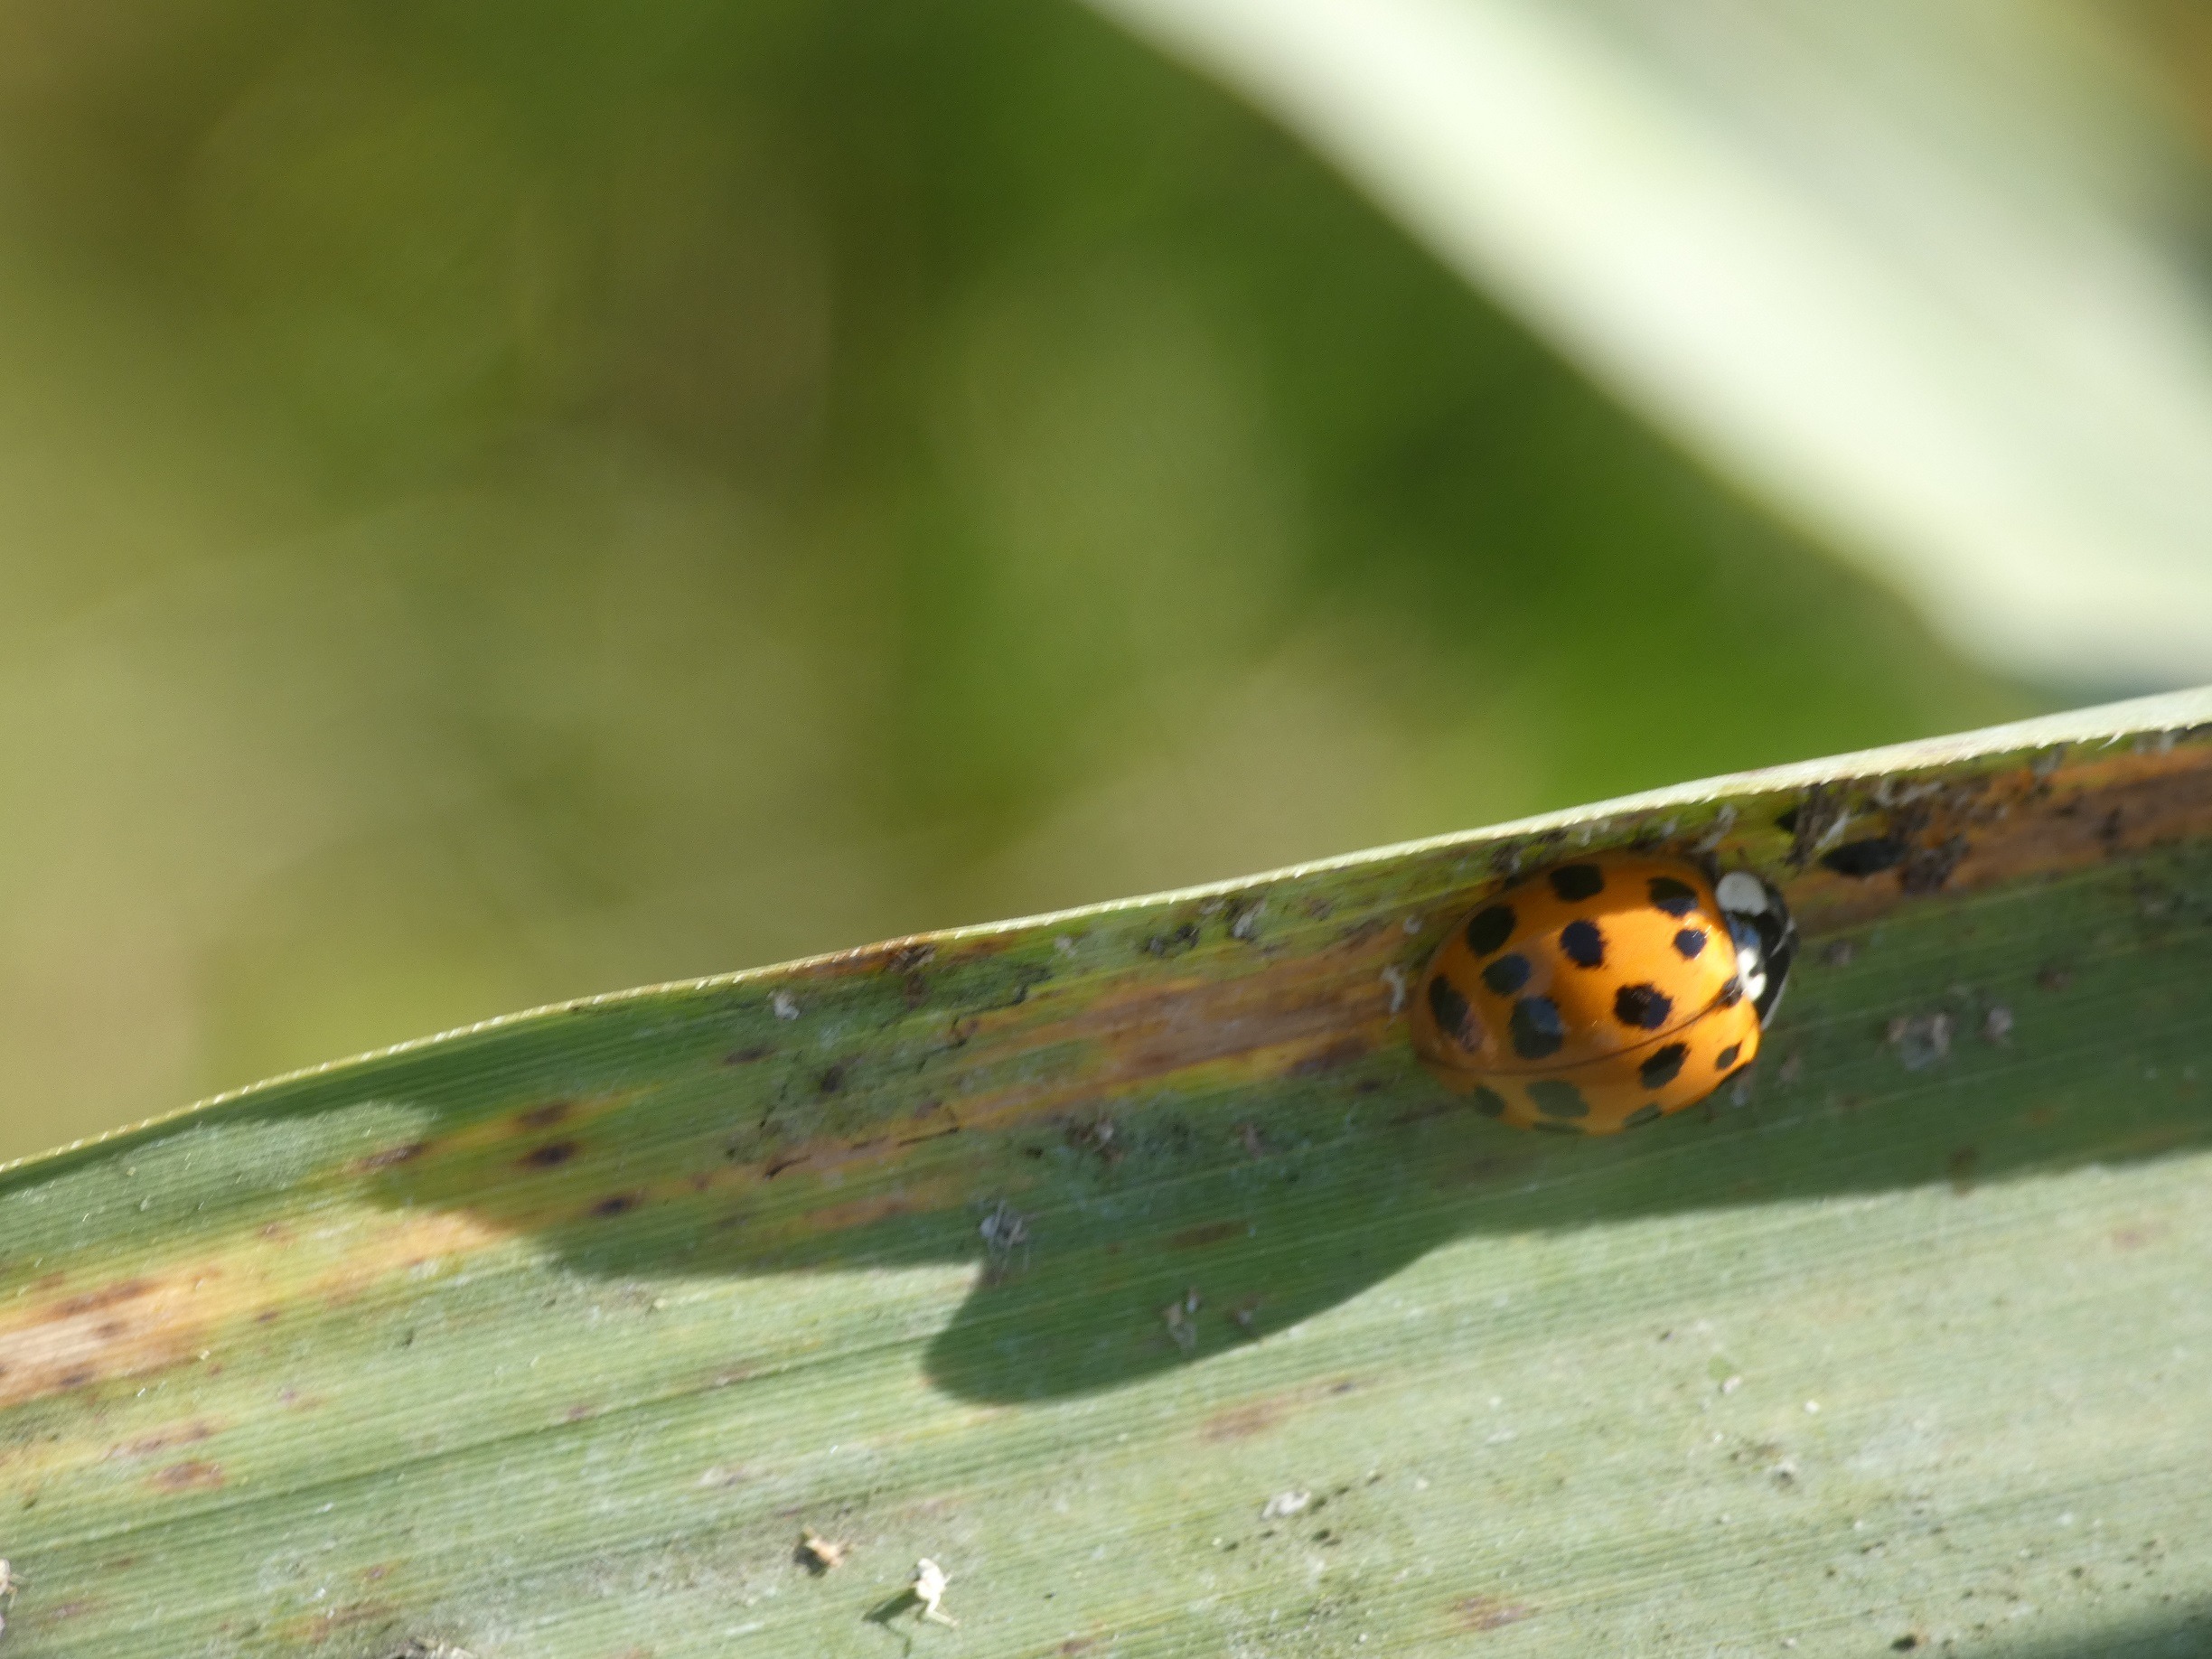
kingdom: Animalia
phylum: Arthropoda
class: Insecta
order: Coleoptera
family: Coccinellidae
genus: Harmonia
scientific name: Harmonia axyridis
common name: Harlekinmariehøne
